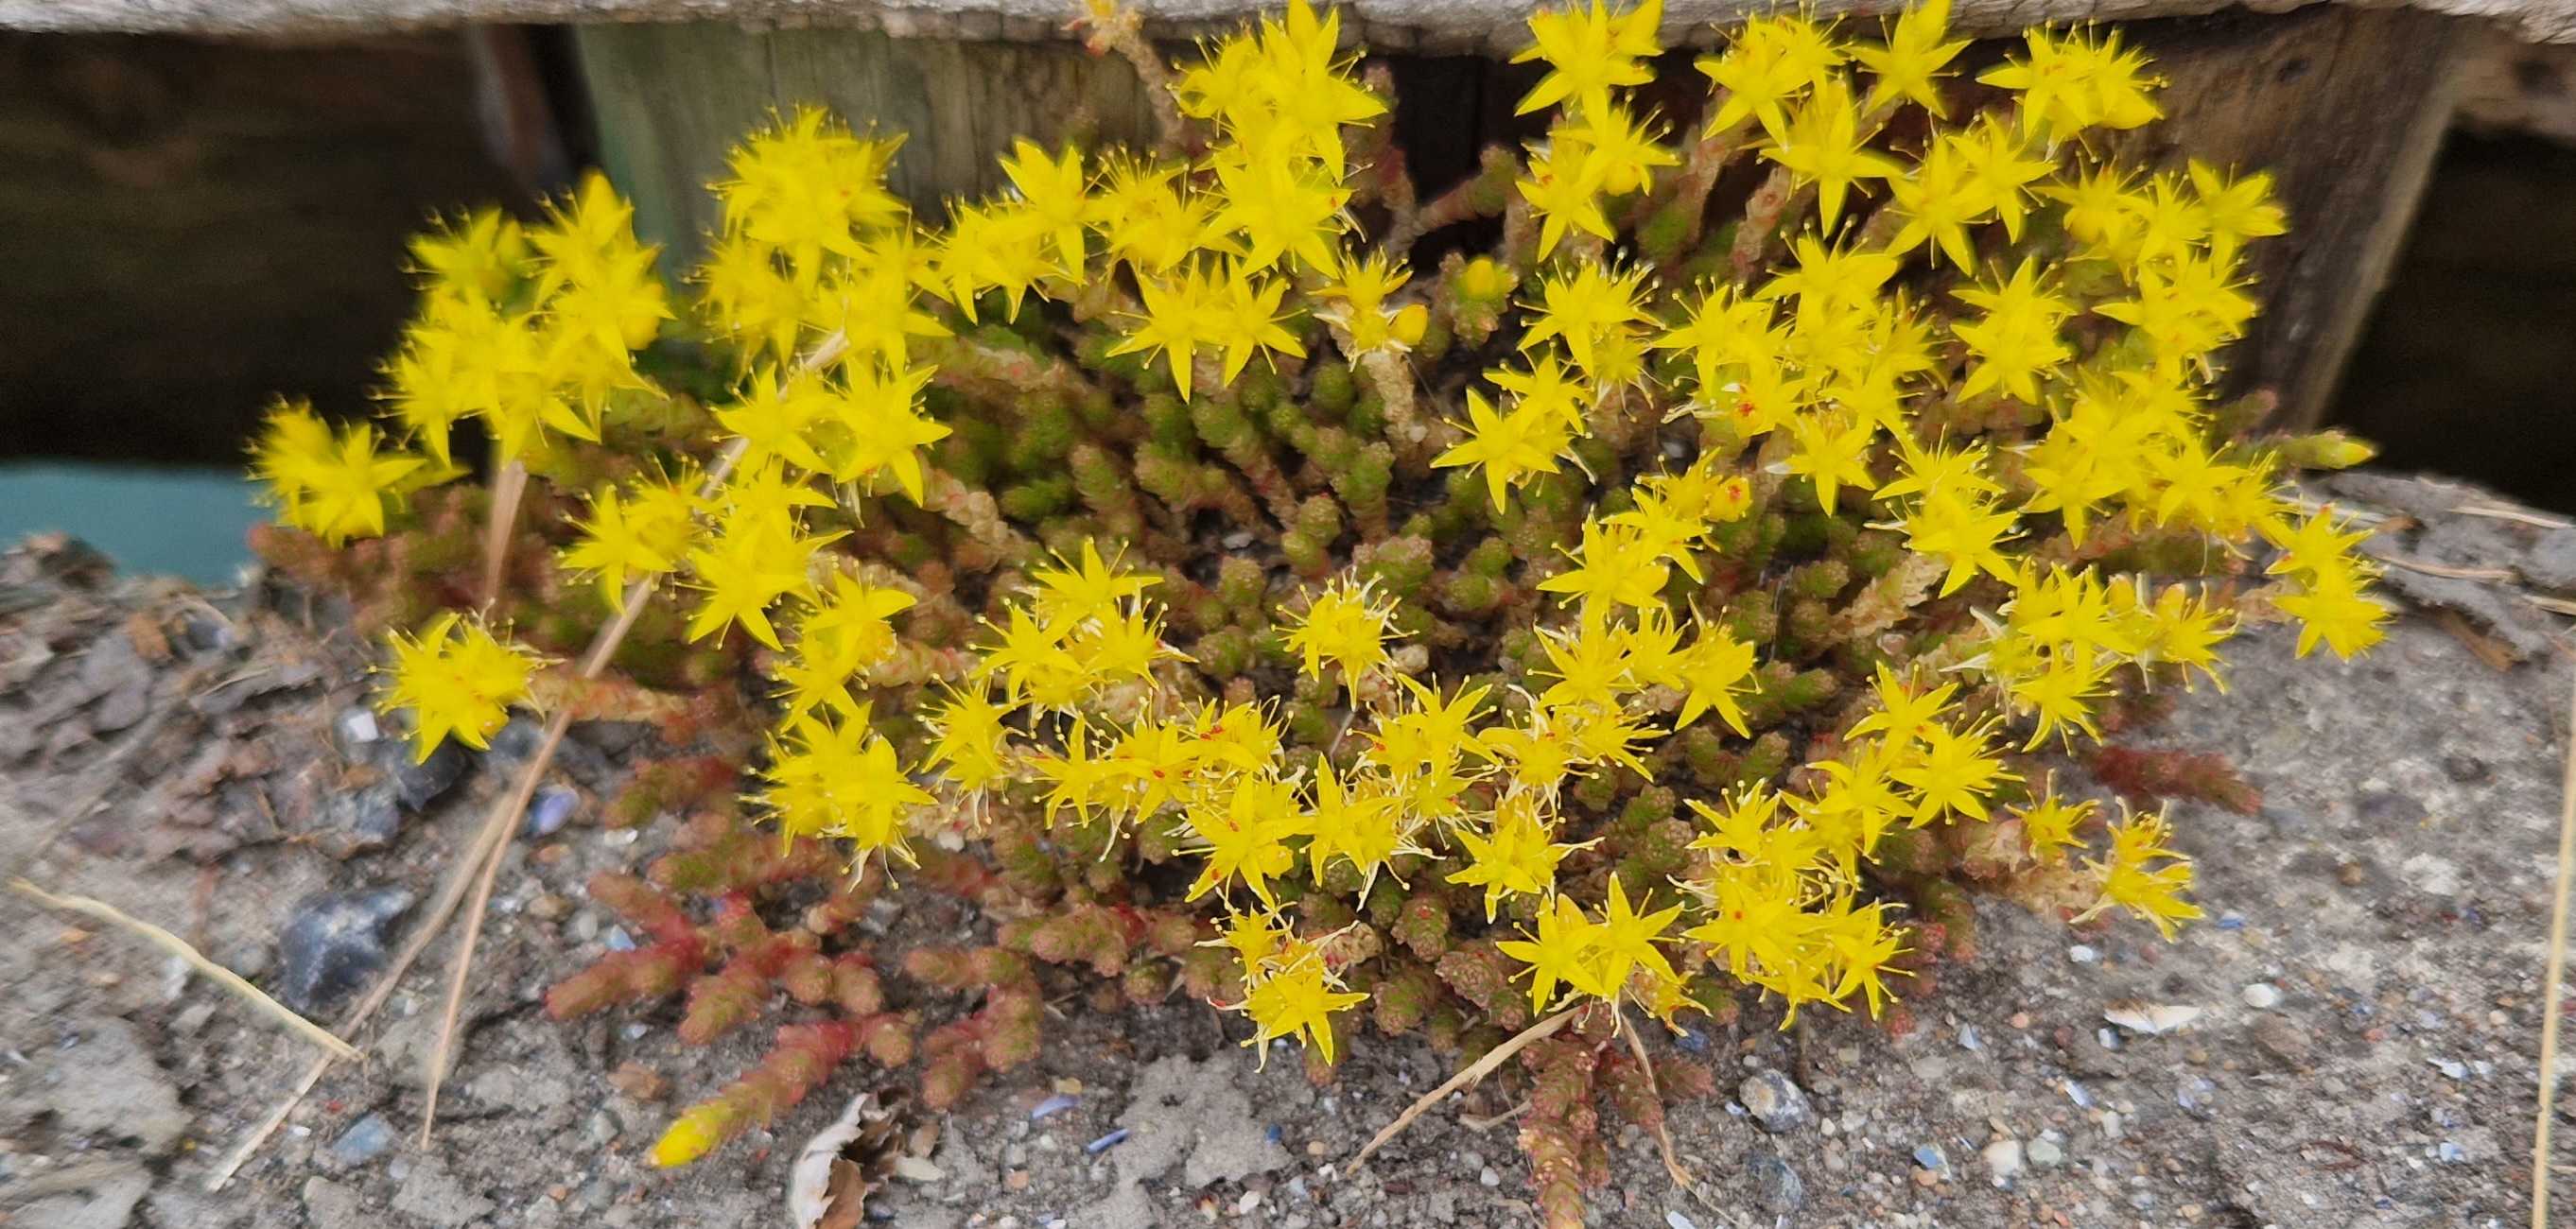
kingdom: Plantae
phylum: Tracheophyta
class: Magnoliopsida
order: Saxifragales
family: Crassulaceae
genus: Sedum
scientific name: Sedum acre
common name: Bidende stenurt
